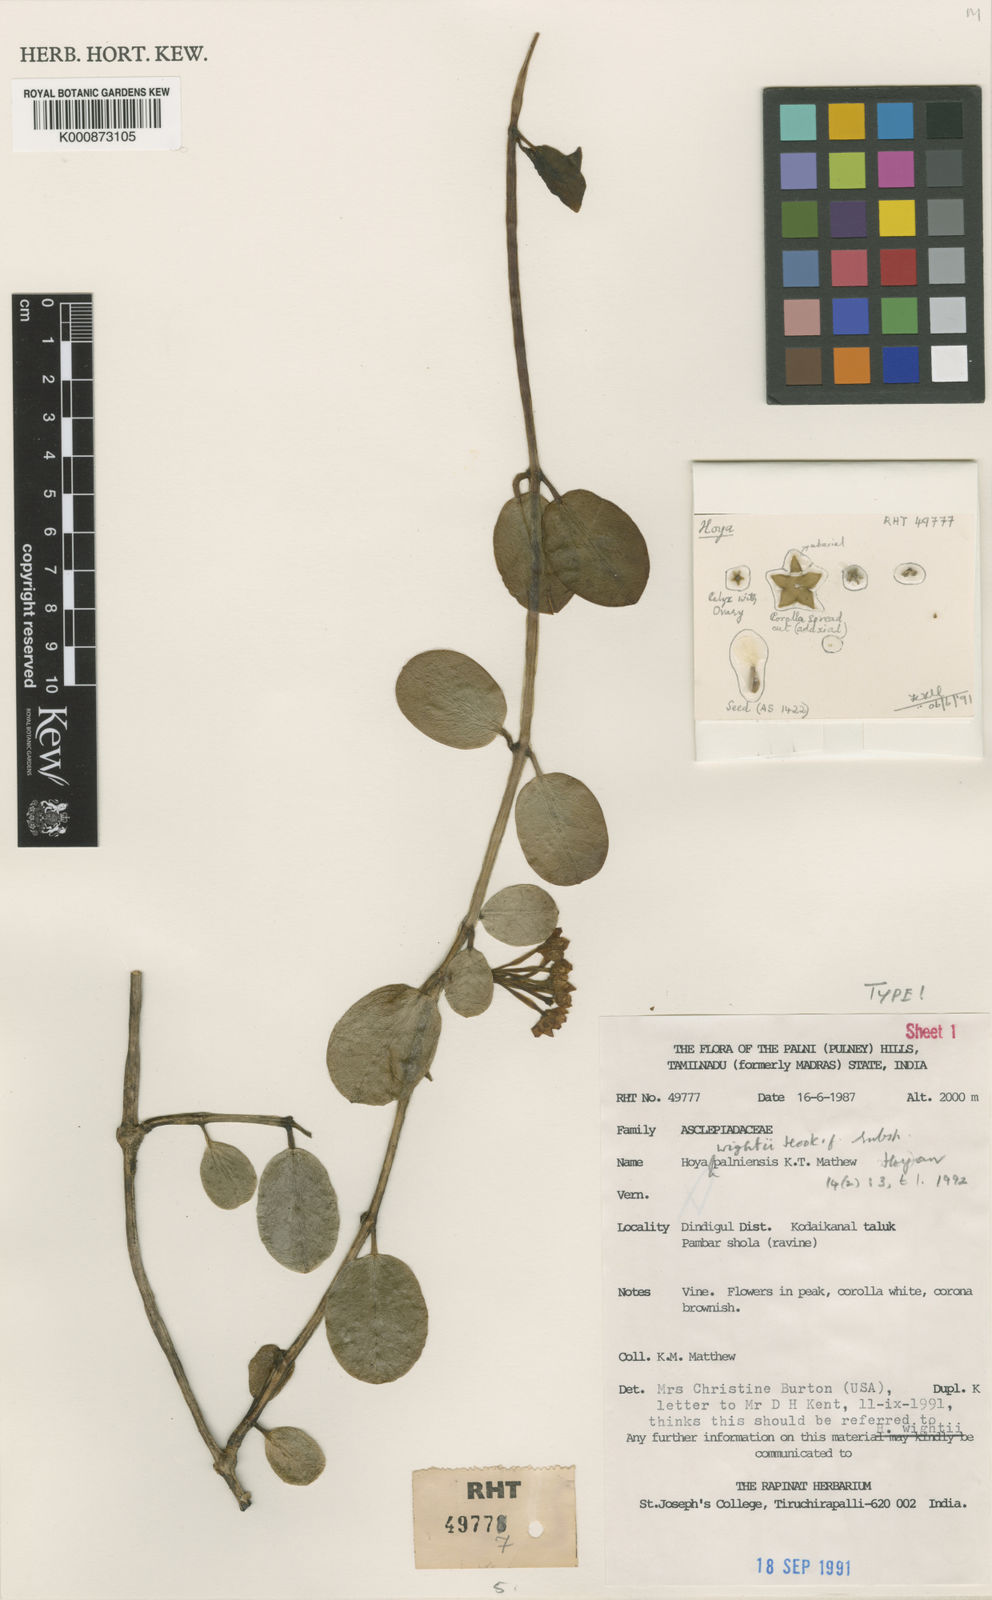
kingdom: Plantae
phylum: Tracheophyta
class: Magnoliopsida
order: Gentianales
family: Apocynaceae
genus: Hoya
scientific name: Hoya wightii
